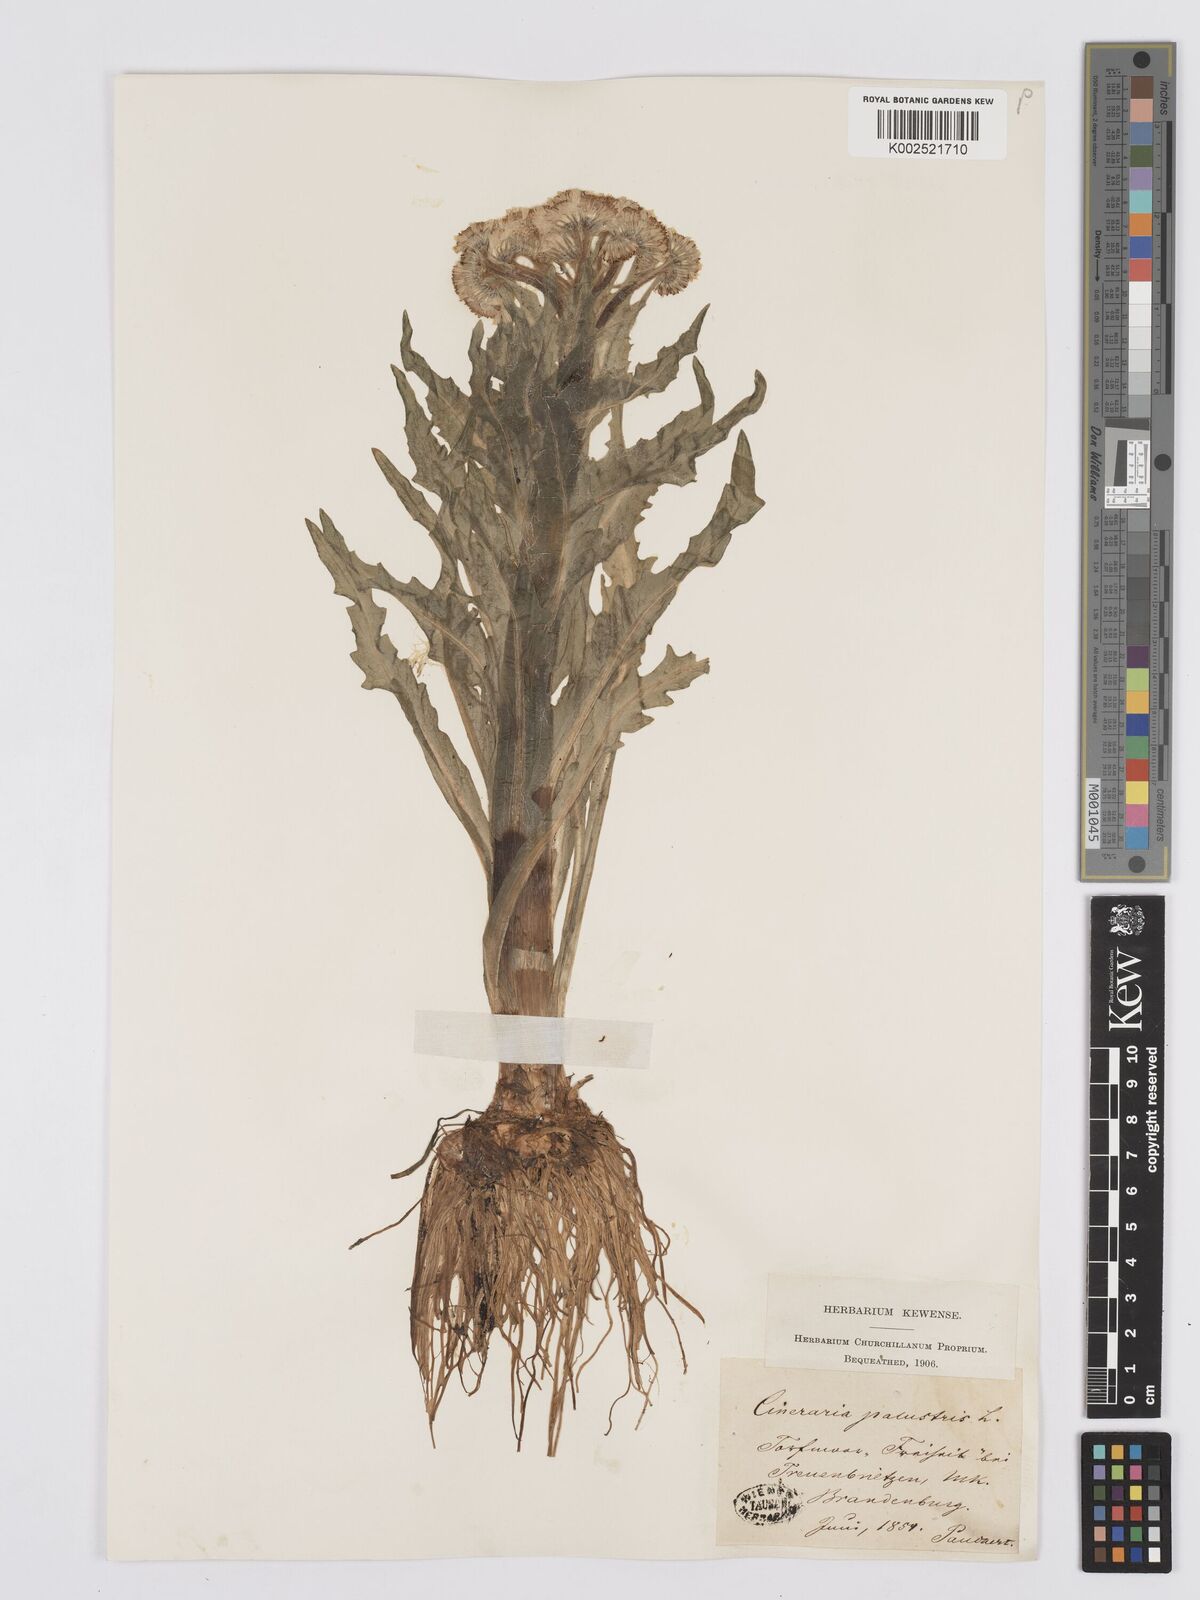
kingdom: Plantae
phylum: Tracheophyta
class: Magnoliopsida
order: Asterales
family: Asteraceae
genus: Tephroseris
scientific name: Tephroseris palustris
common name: Marsh fleawort
